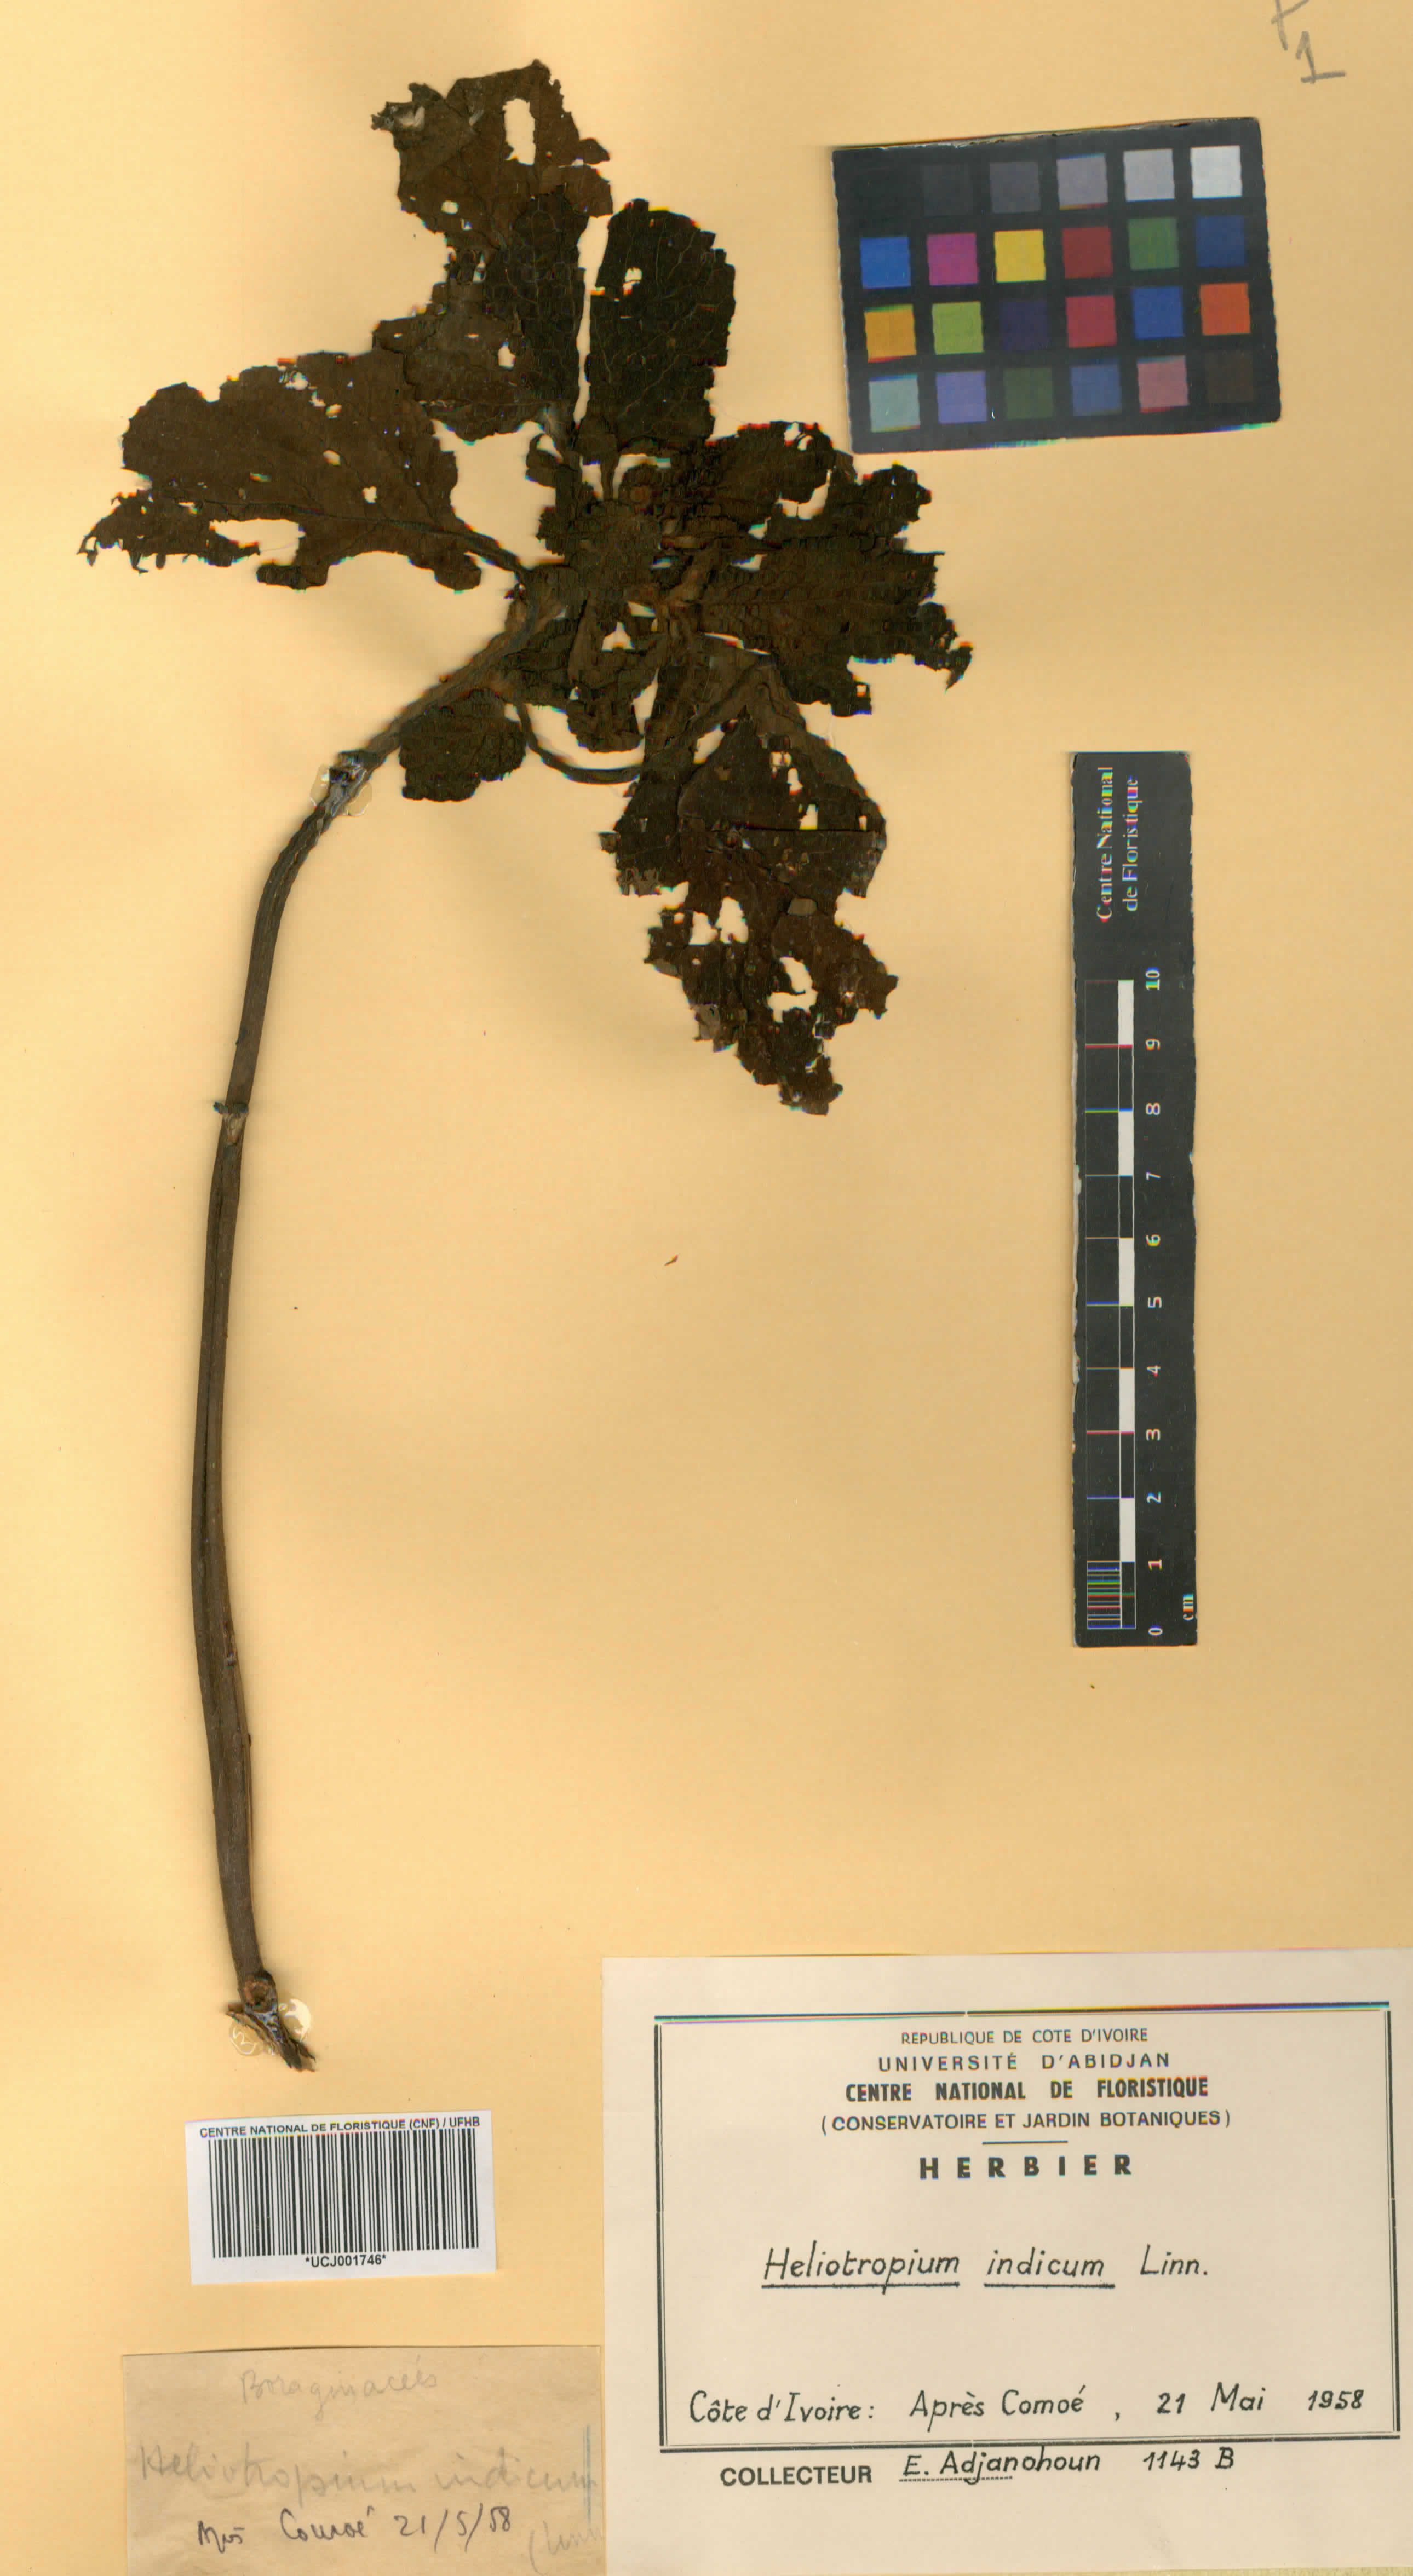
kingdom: Plantae
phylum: Tracheophyta
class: Magnoliopsida
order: Boraginales
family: Heliotropiaceae
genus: Heliotropium
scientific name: Heliotropium indicum
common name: Indian heliotrope
